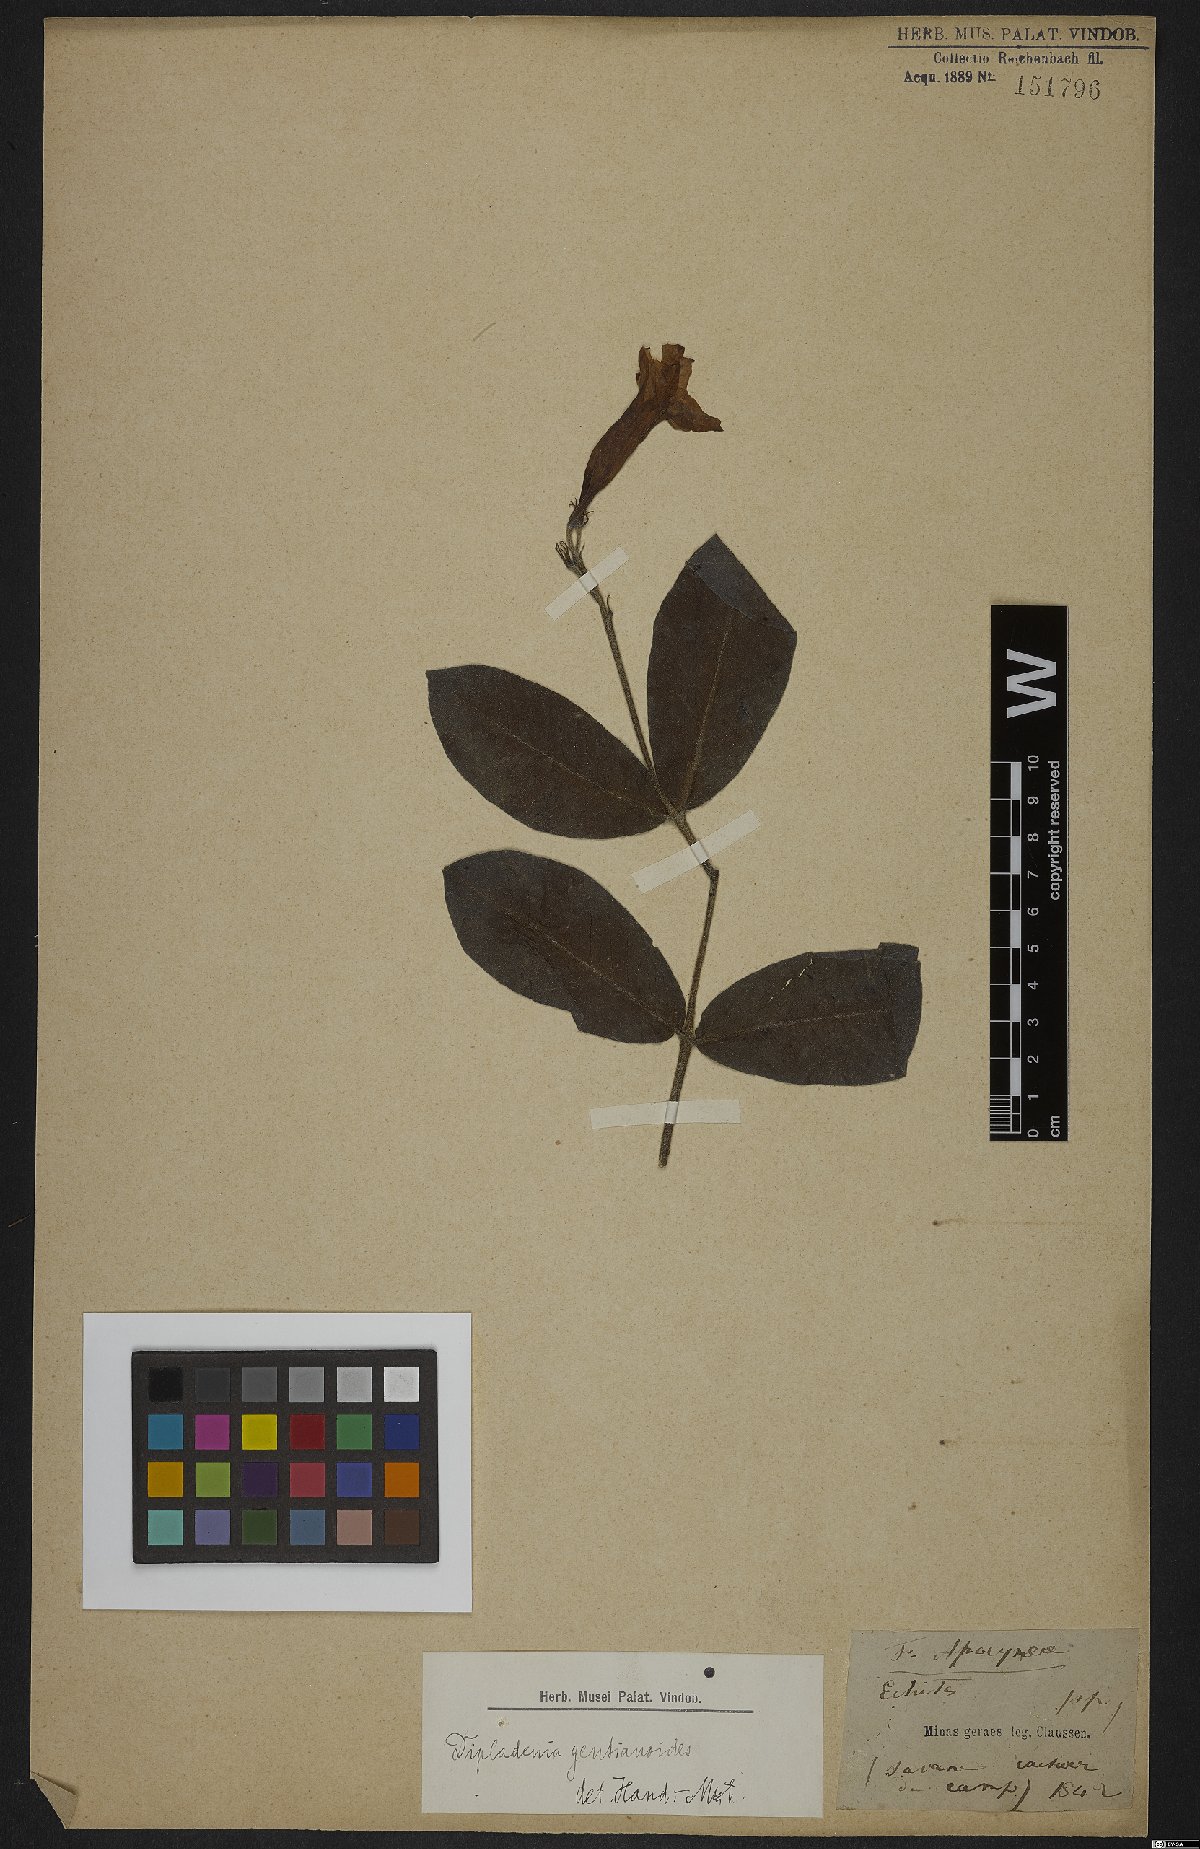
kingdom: Plantae
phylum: Tracheophyta
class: Magnoliopsida
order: Gentianales
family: Apocynaceae
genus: Mandevilla
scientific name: Mandevilla pohliana
